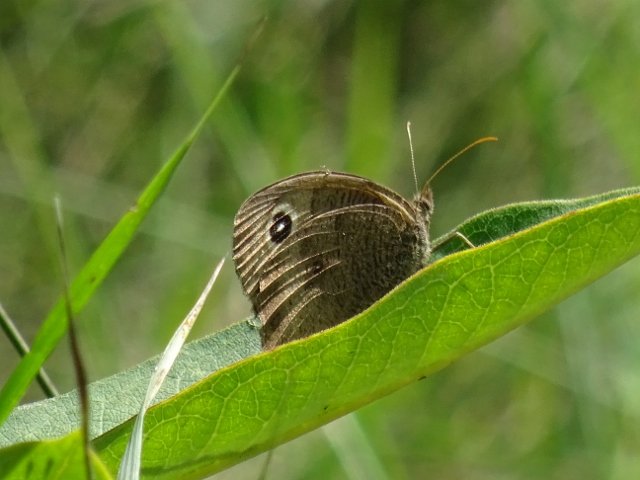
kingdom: Animalia
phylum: Arthropoda
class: Insecta
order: Lepidoptera
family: Nymphalidae
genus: Cercyonis
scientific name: Cercyonis pegala
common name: Common Wood-Nymph
